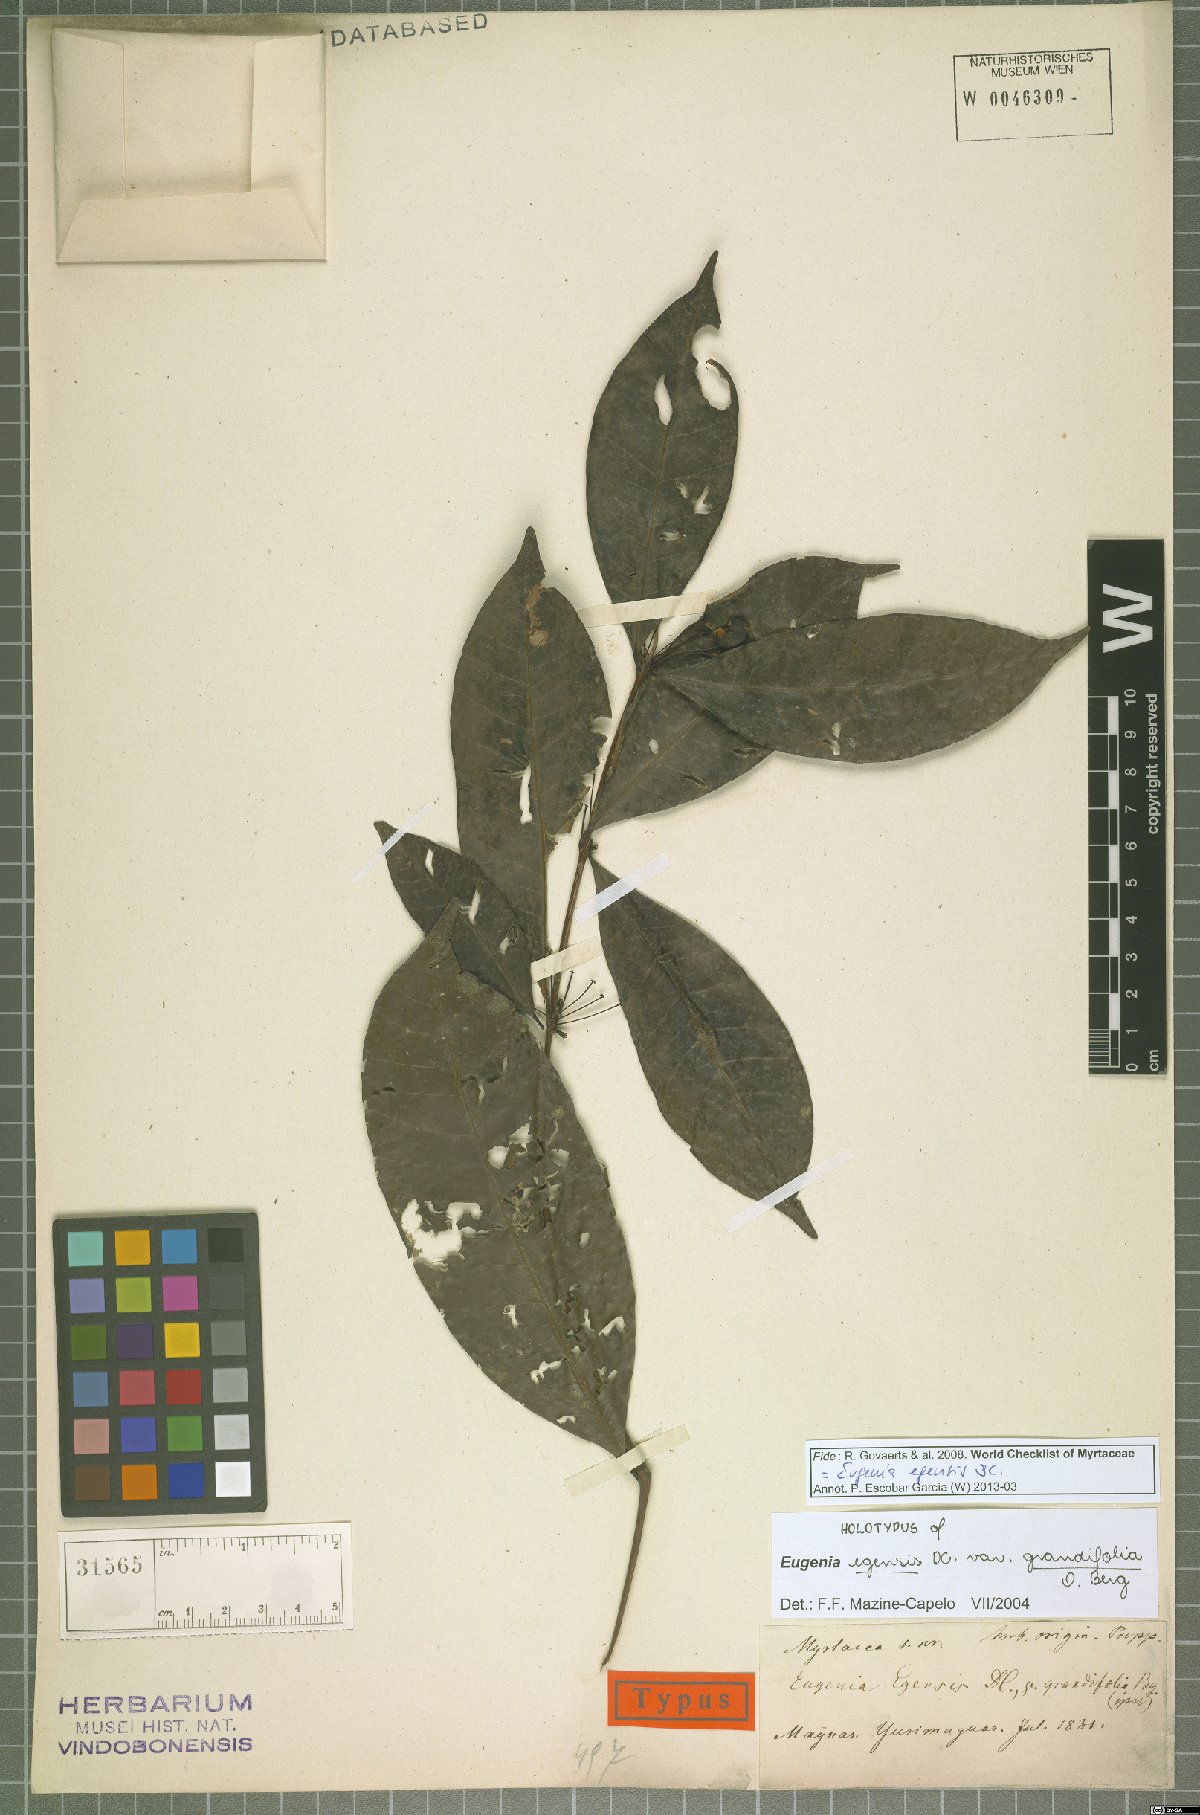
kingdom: Plantae
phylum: Tracheophyta
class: Magnoliopsida
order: Myrtales
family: Myrtaceae
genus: Eugenia
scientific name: Eugenia egensis
